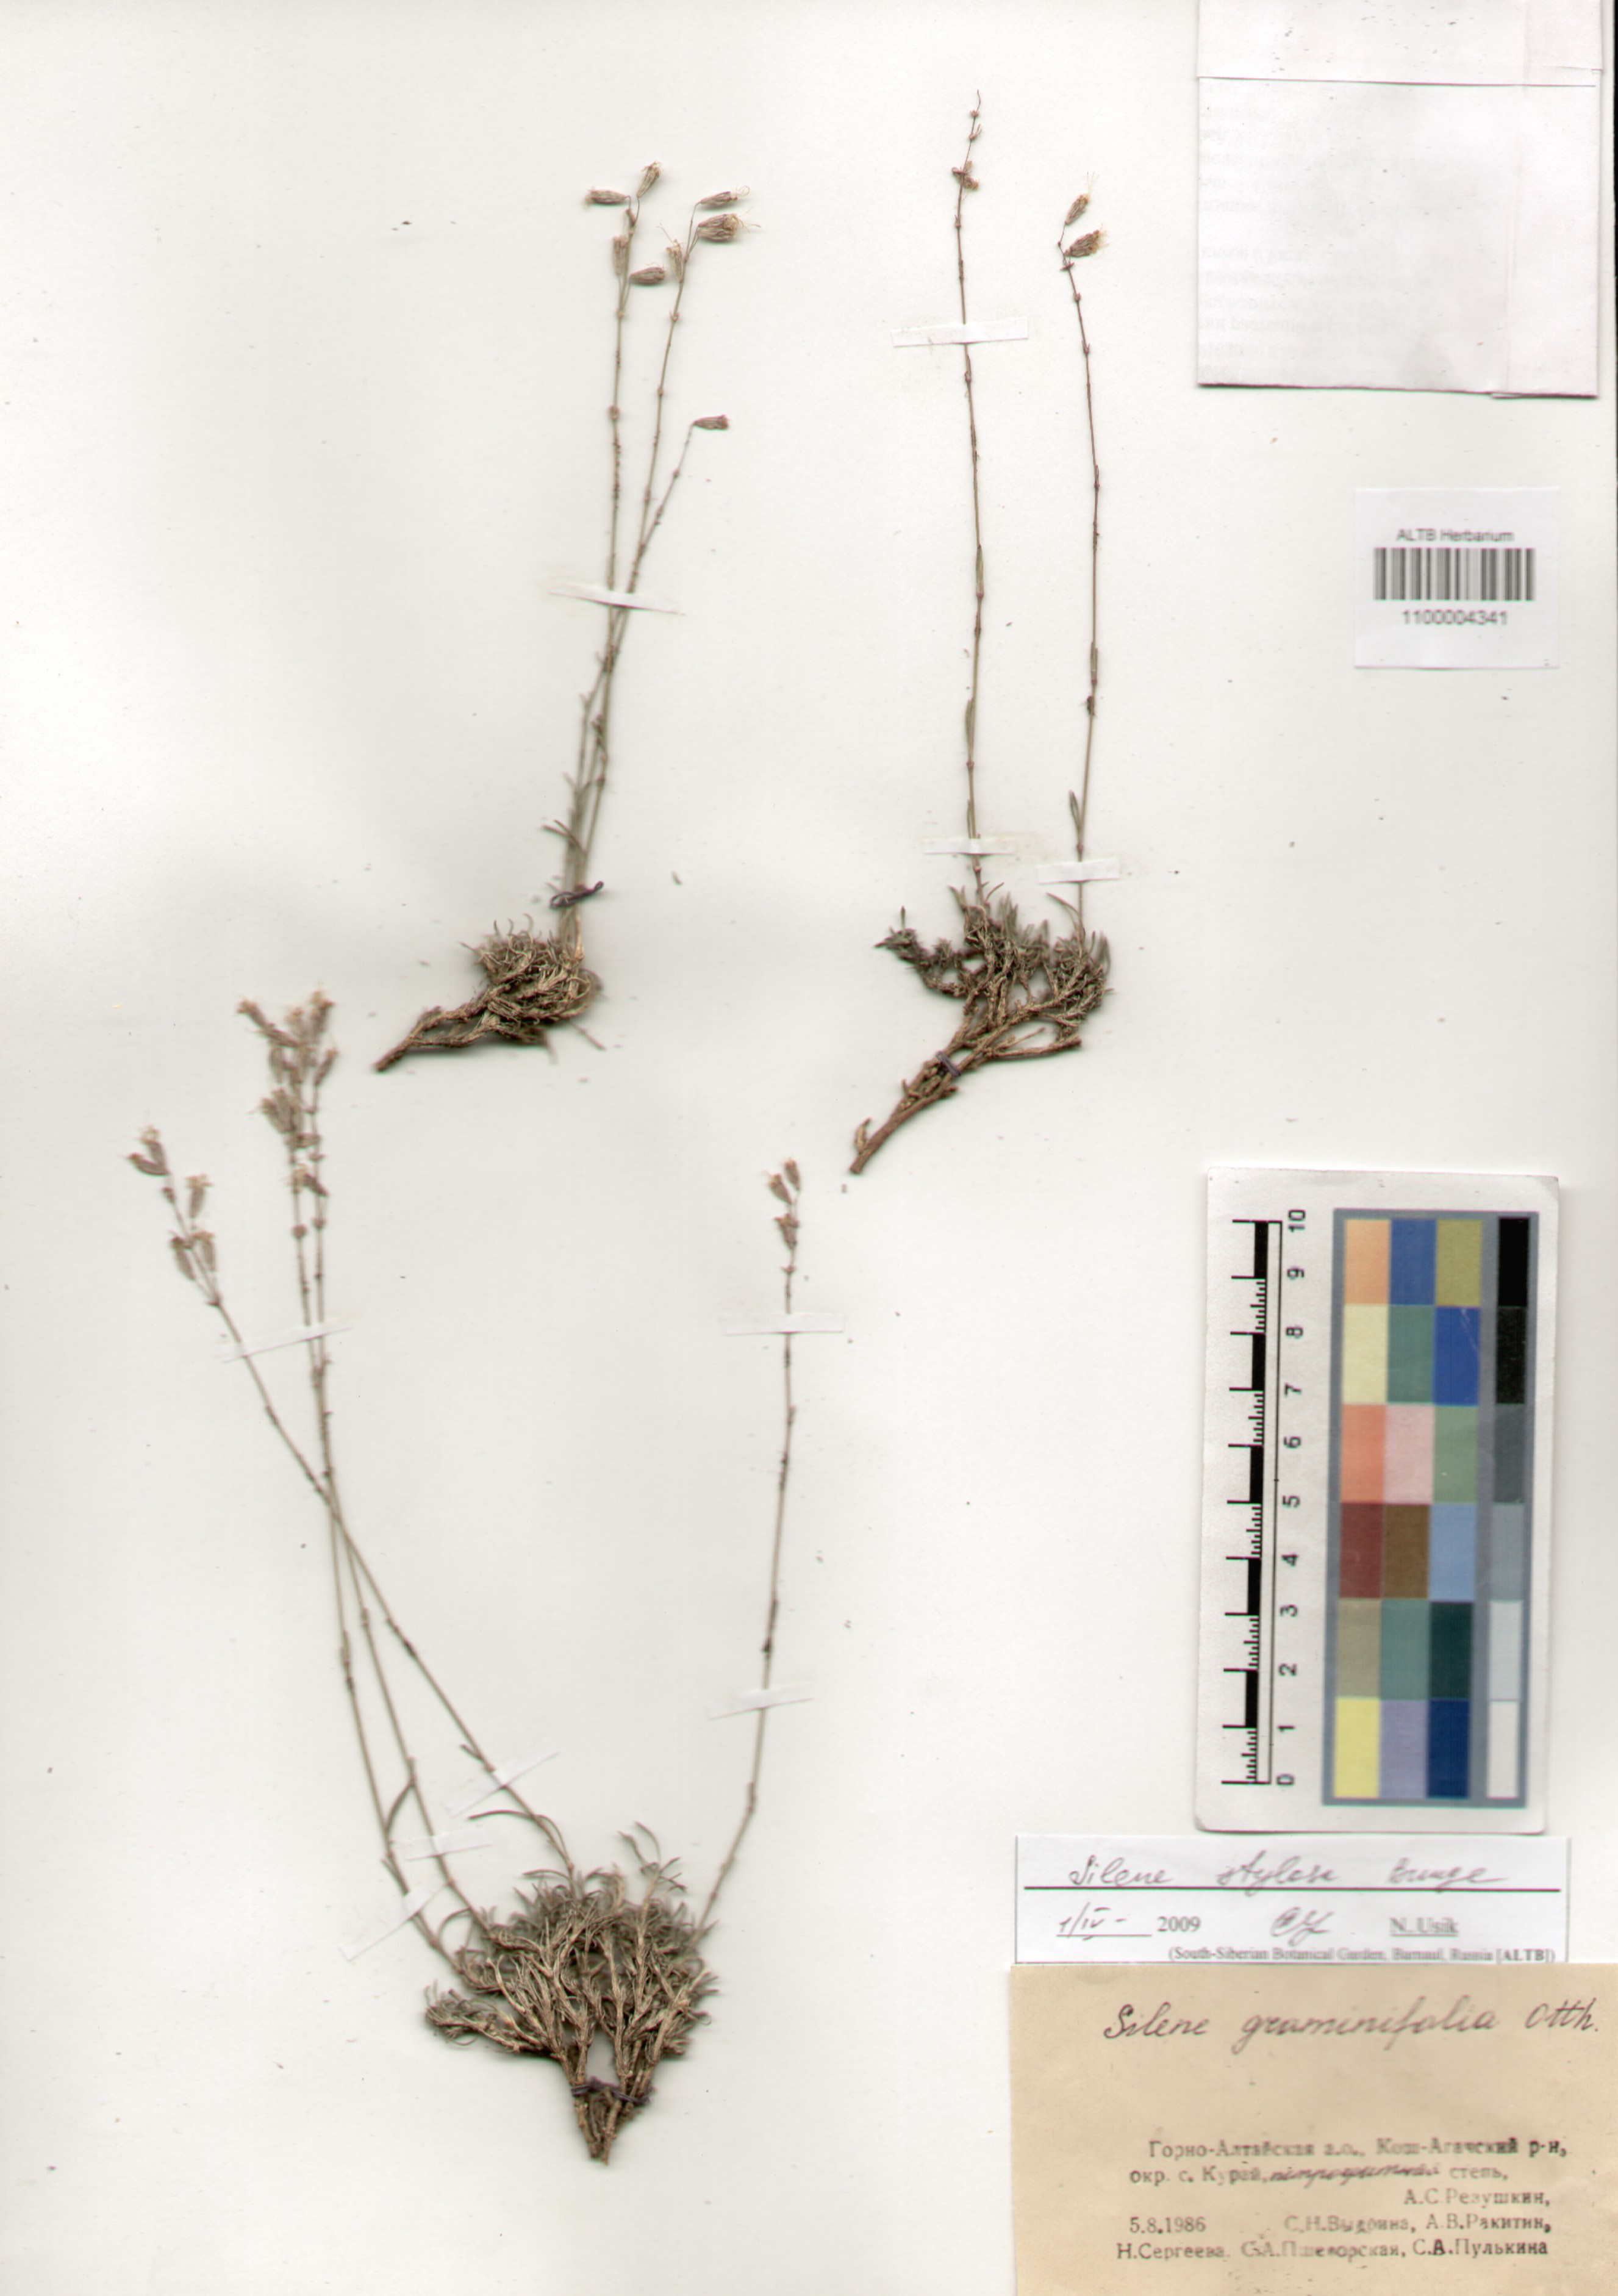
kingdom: Plantae
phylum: Tracheophyta
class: Magnoliopsida
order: Caryophyllales
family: Caryophyllaceae
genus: Silene
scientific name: Silene graminifolia
